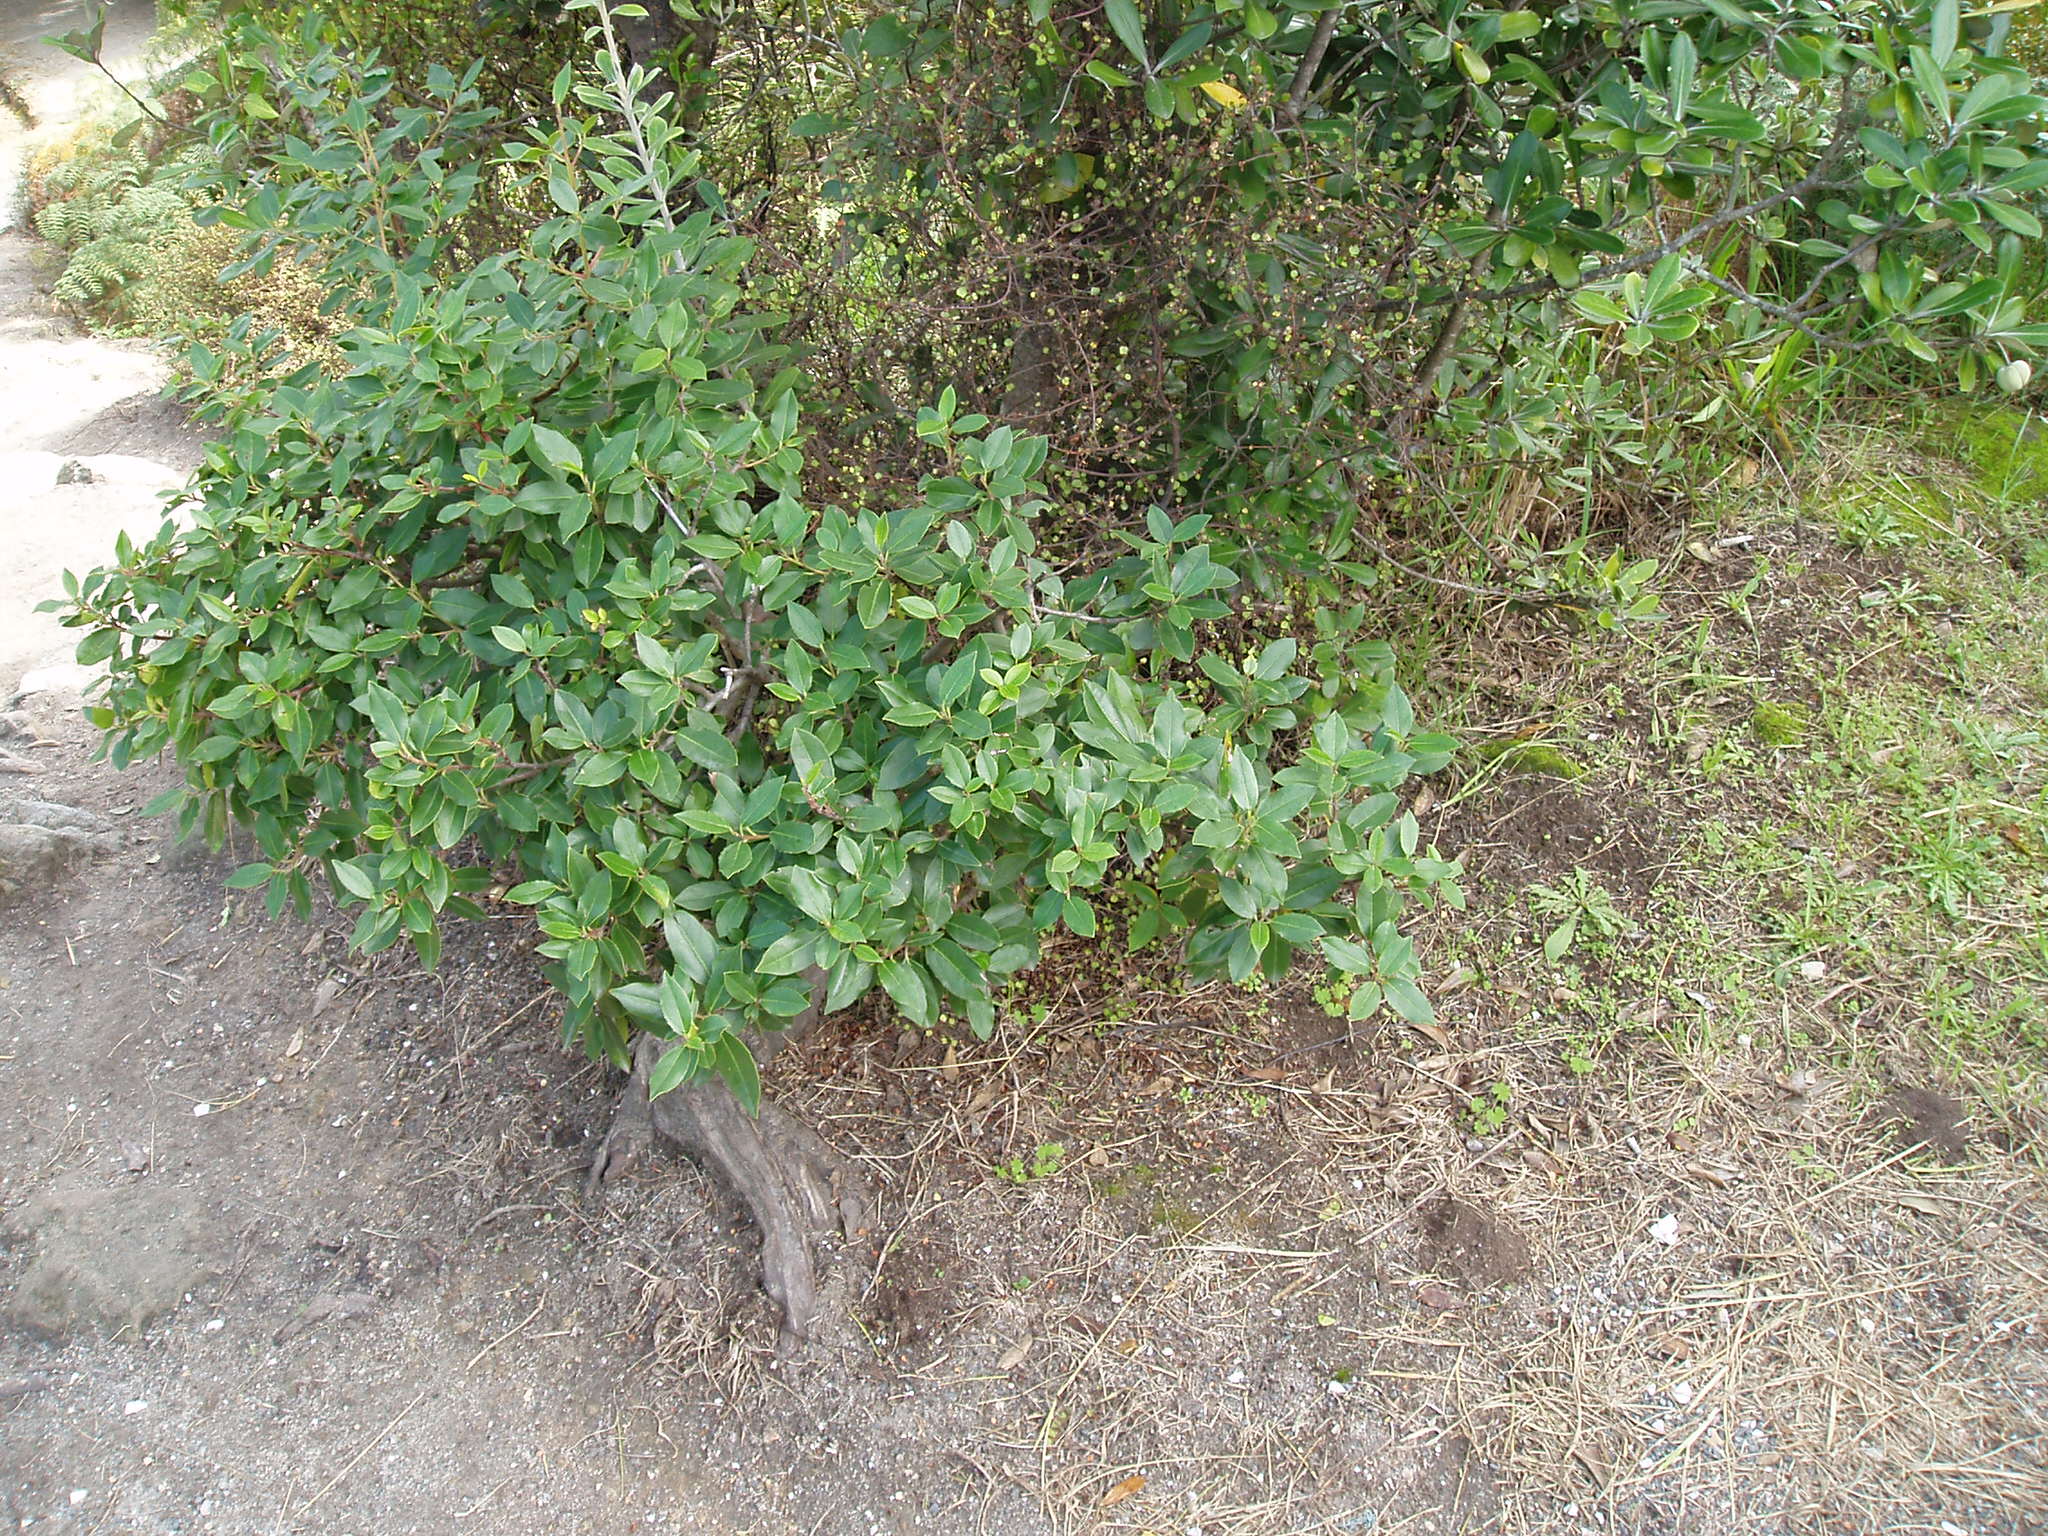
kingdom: Plantae
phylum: Tracheophyta
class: Magnoliopsida
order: Rosales
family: Rhamnaceae
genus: Rhamnus
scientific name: Rhamnus alaternus
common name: Mediterranean buckthorn
